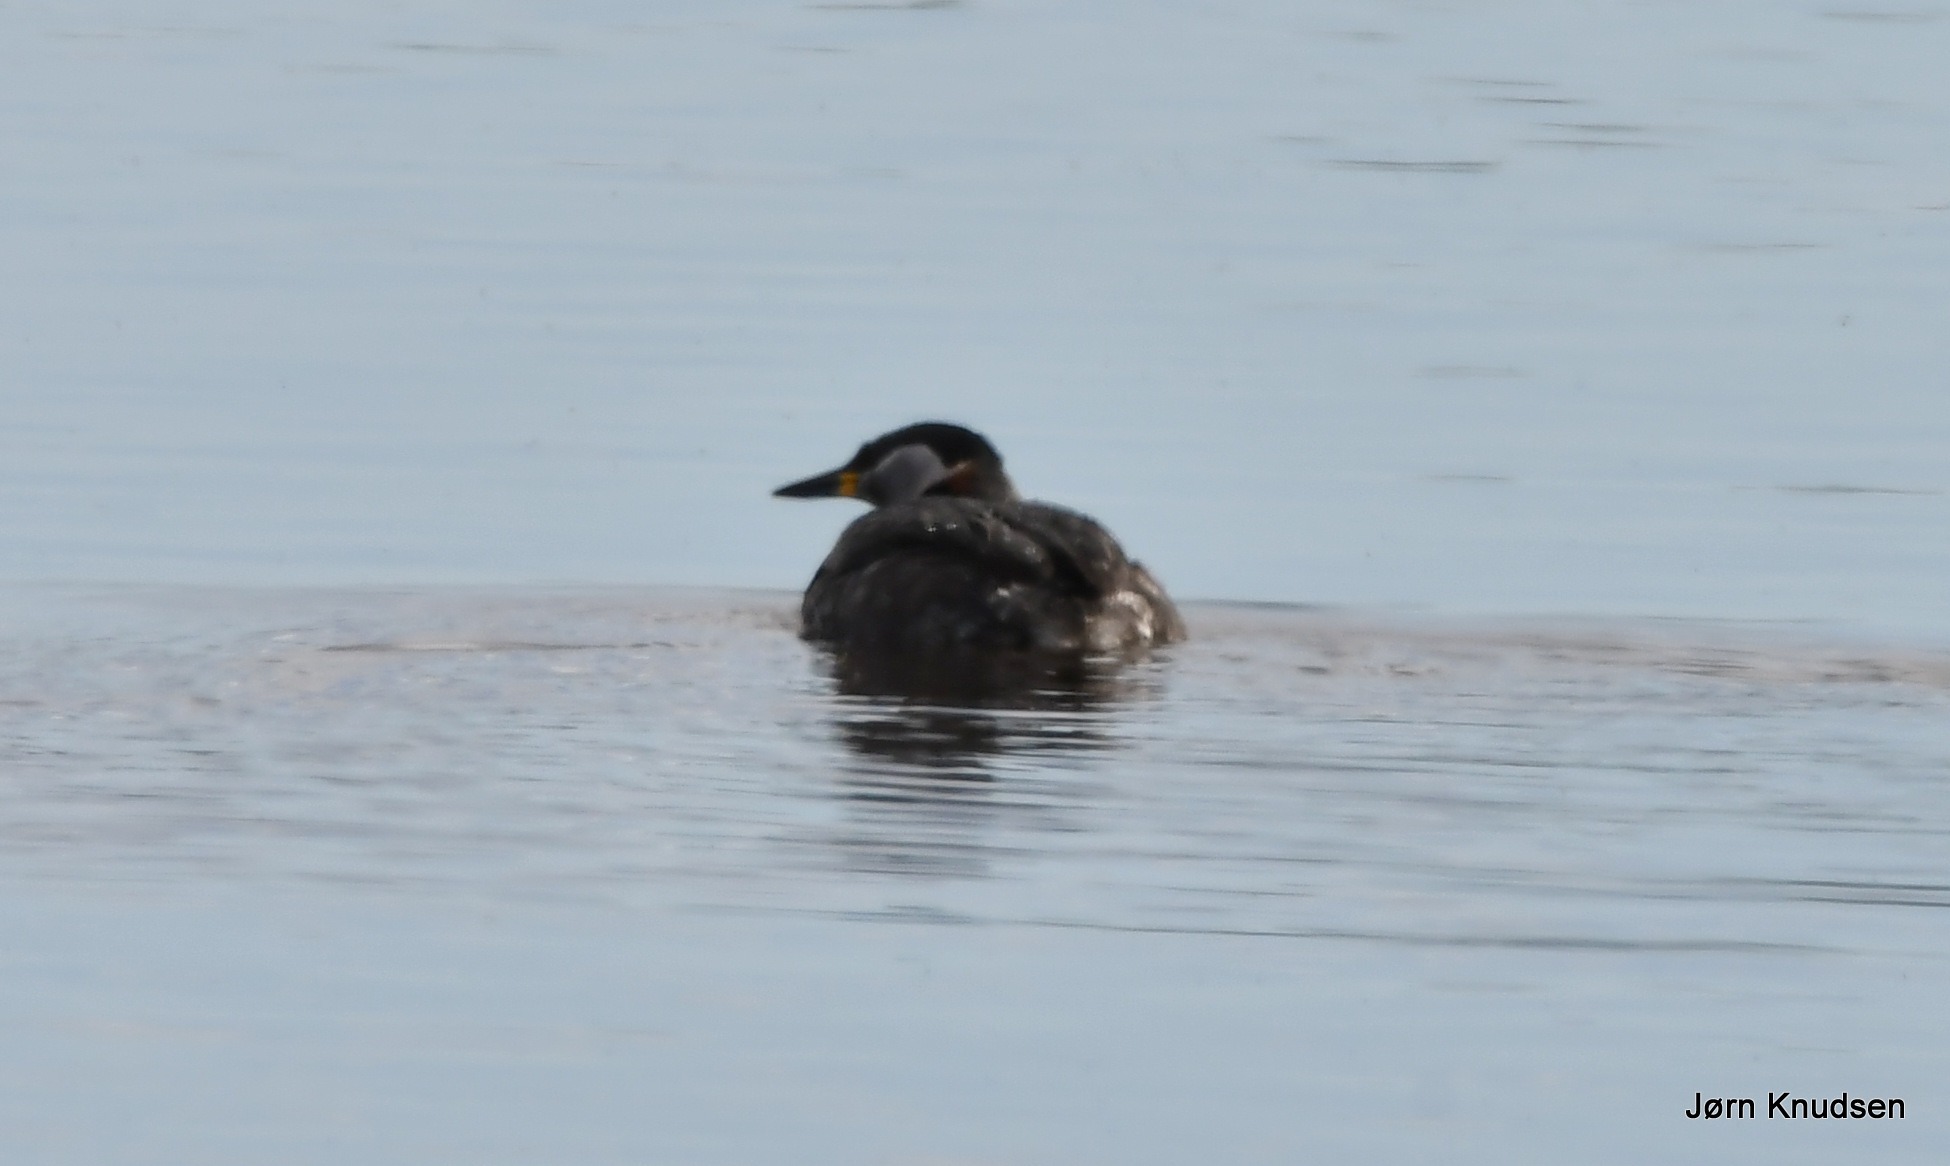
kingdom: Animalia
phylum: Chordata
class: Aves
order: Podicipediformes
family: Podicipedidae
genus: Podiceps
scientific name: Podiceps grisegena
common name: Gråstrubet lappedykker
